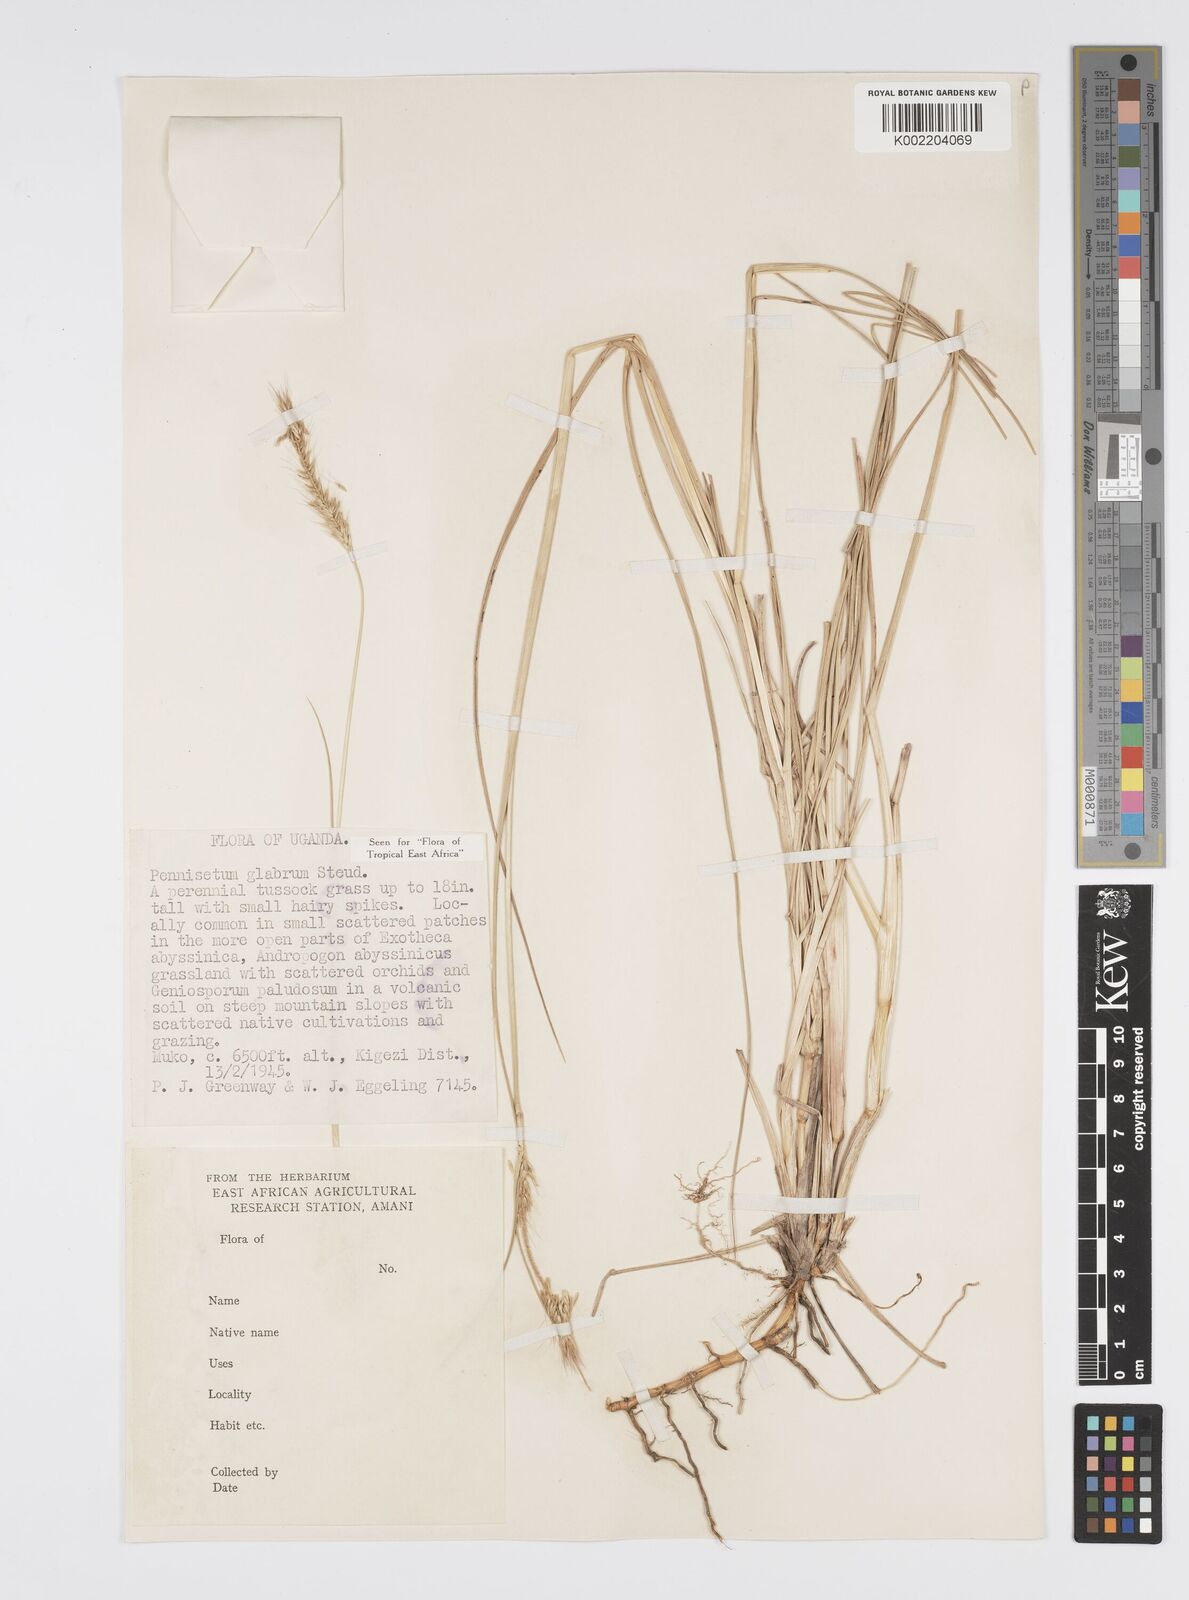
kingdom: Plantae
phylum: Tracheophyta
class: Liliopsida
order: Poales
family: Poaceae
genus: Cenchrus
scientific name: Cenchrus geniculatus
